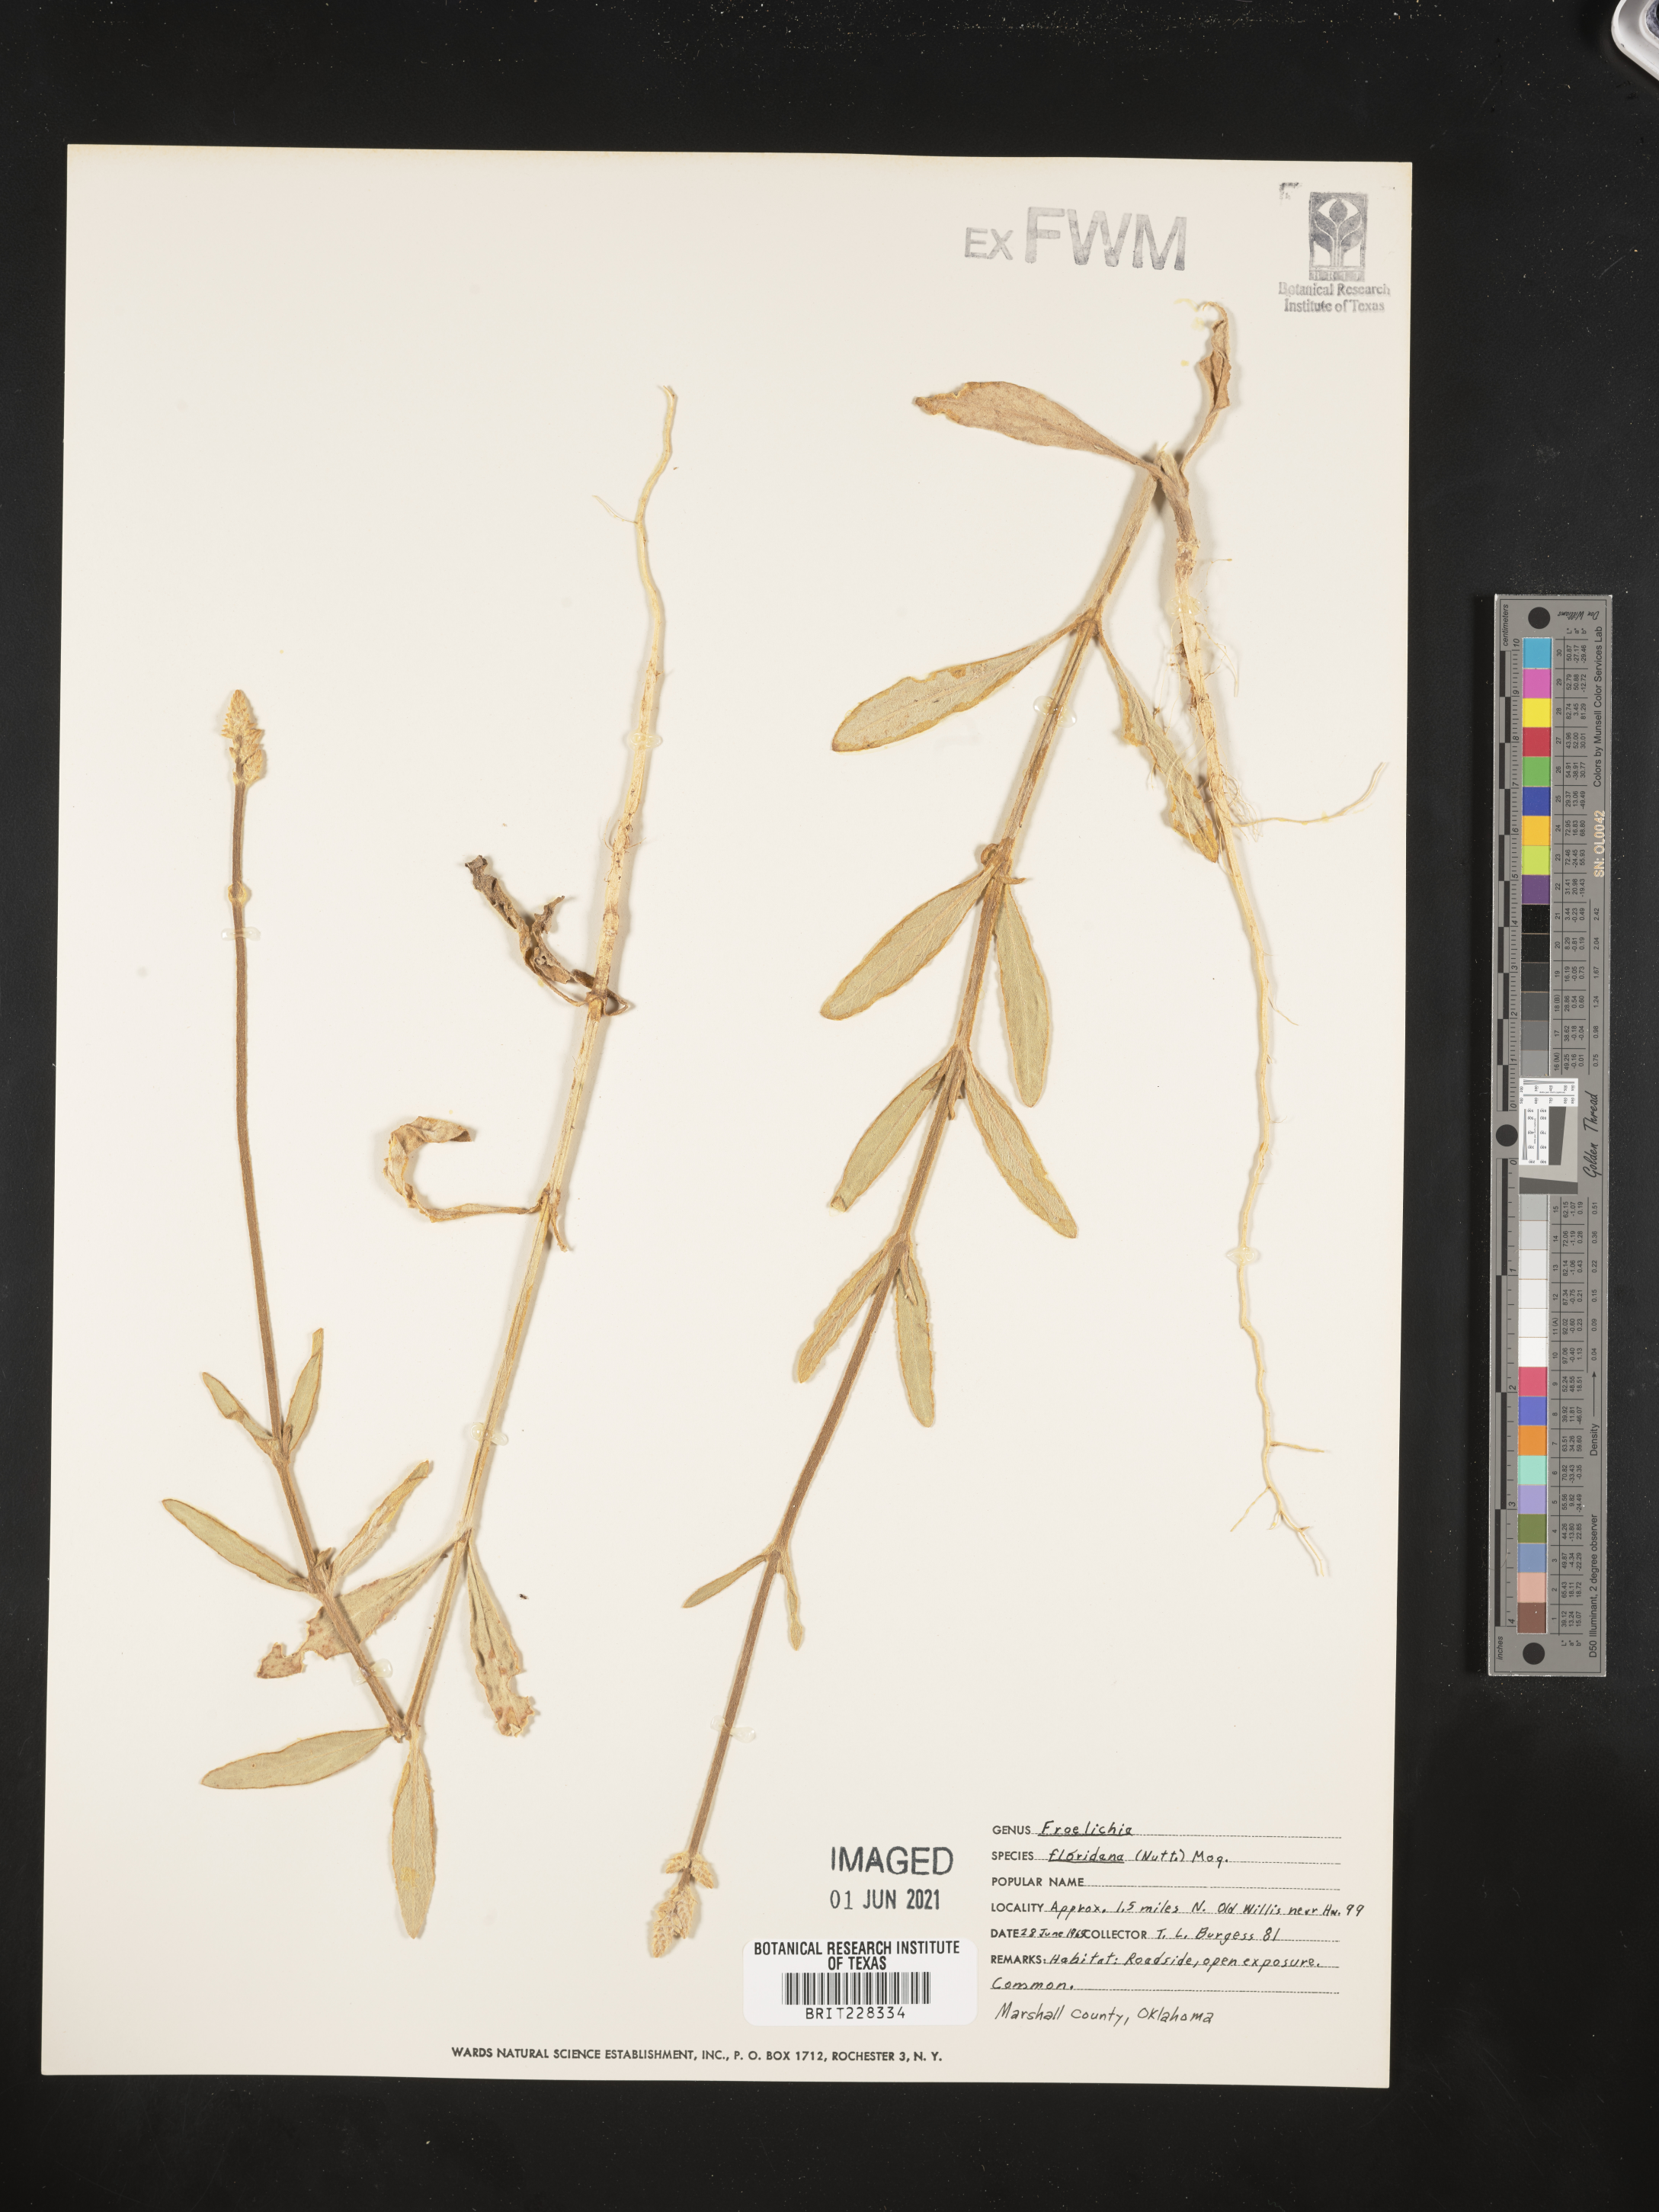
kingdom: Plantae
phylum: Tracheophyta
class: Magnoliopsida
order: Caryophyllales
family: Amaranthaceae
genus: Froelichia
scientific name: Froelichia floridana
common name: Florida snake-cotton
